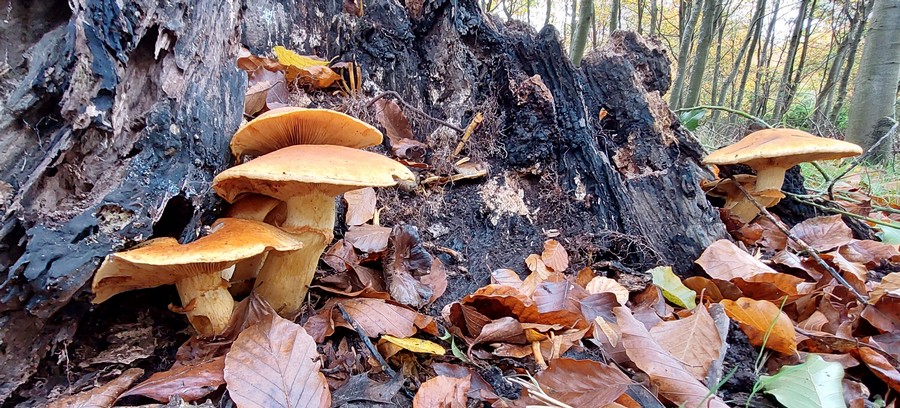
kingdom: Fungi
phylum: Basidiomycota
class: Agaricomycetes
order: Agaricales
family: Hymenogastraceae
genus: Gymnopilus
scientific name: Gymnopilus spectabilis
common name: fibret flammehat
